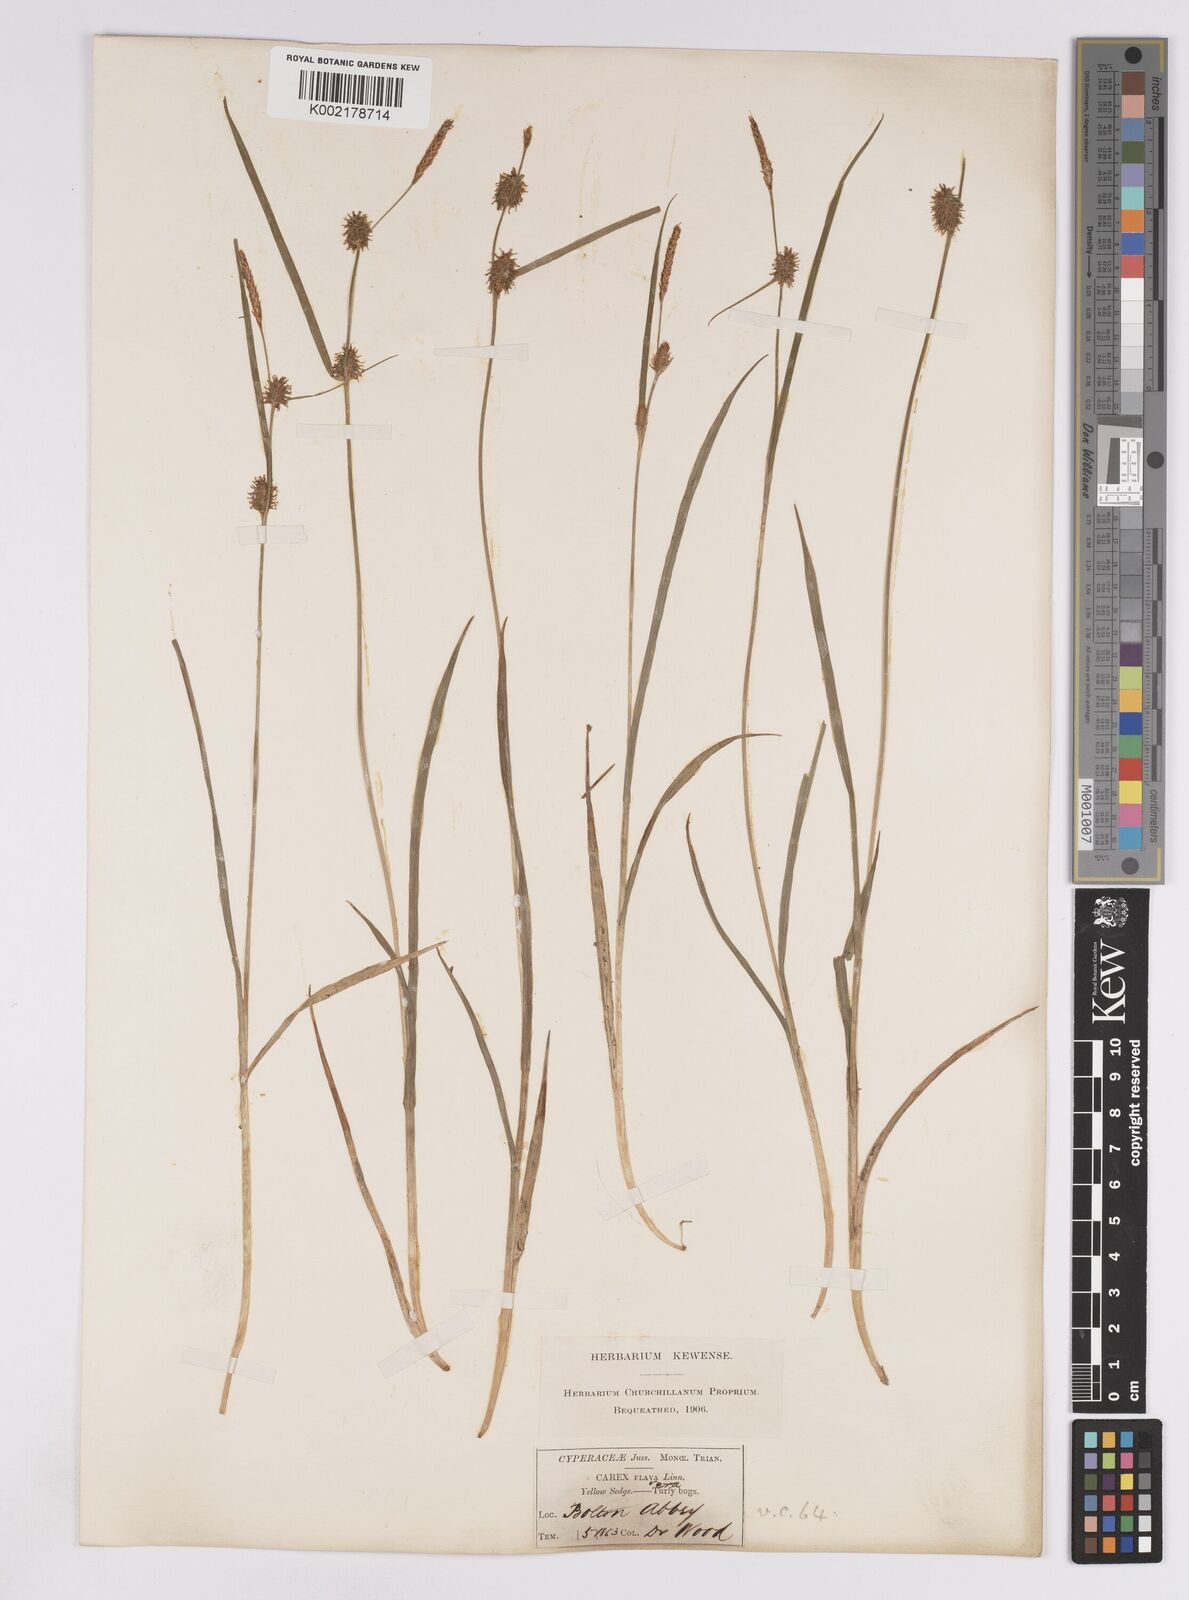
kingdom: Plantae
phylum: Tracheophyta
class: Liliopsida
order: Poales
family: Cyperaceae
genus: Carex
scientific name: Carex lepidocarpa
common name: Long-stalked yellow-sedge
